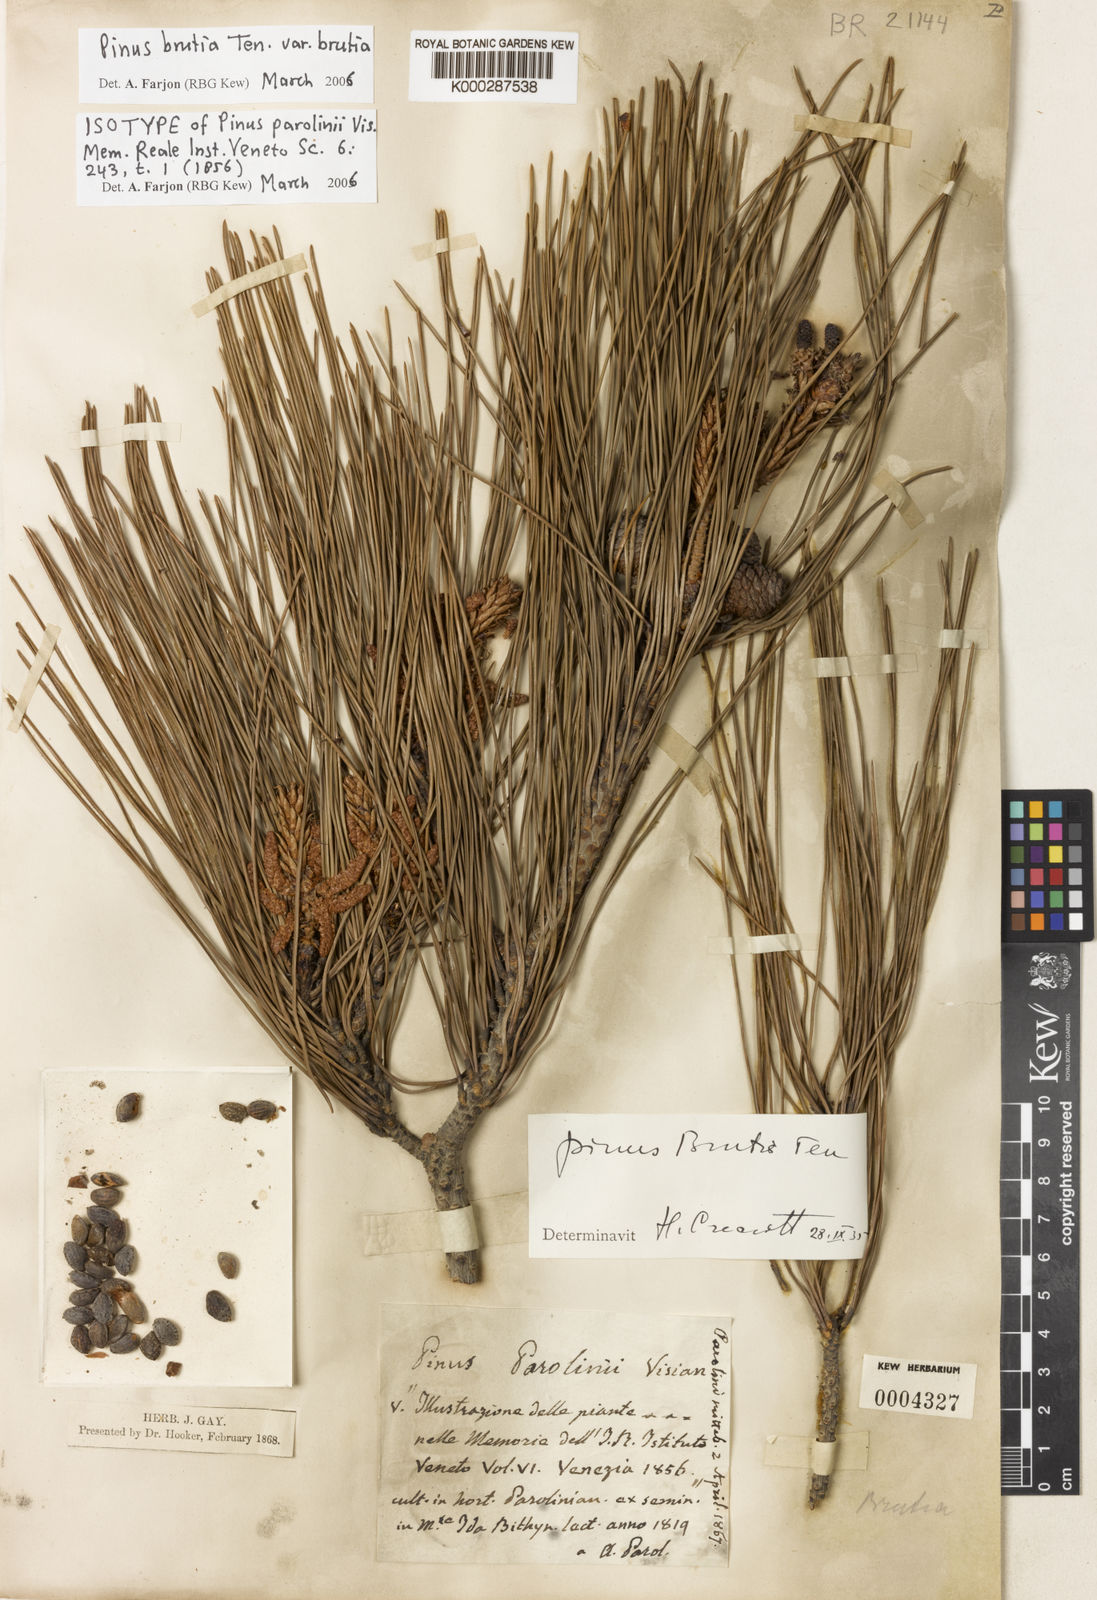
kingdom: Plantae
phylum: Tracheophyta
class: Pinopsida
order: Pinales
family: Pinaceae
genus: Pinus
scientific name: Pinus brutia
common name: Turkish pine
